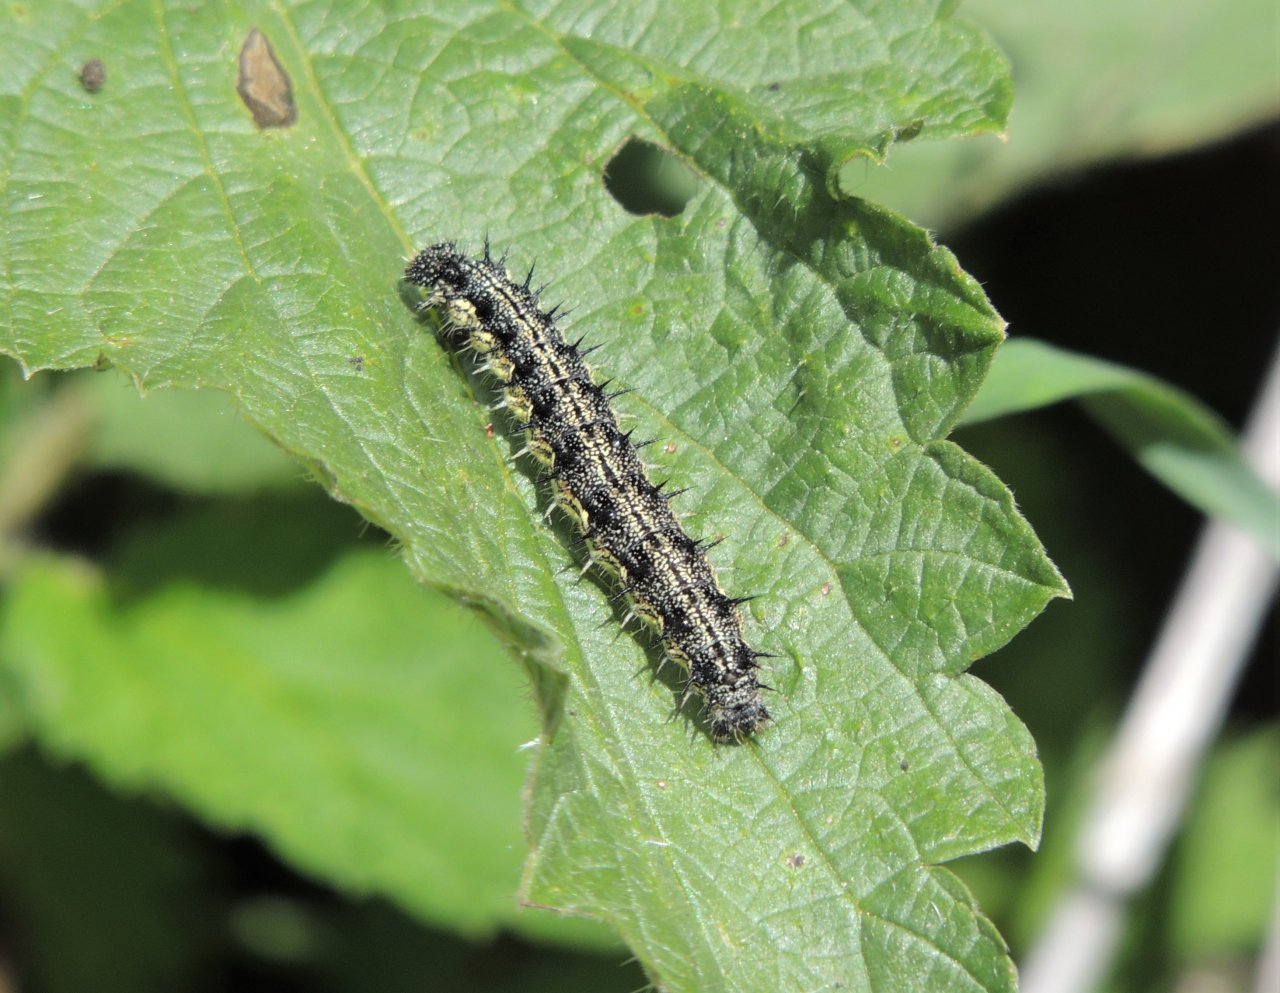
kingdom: Animalia
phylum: Arthropoda
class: Insecta
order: Lepidoptera
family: Nymphalidae
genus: Aglais
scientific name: Aglais milberti
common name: Milbert's Tortoiseshell
